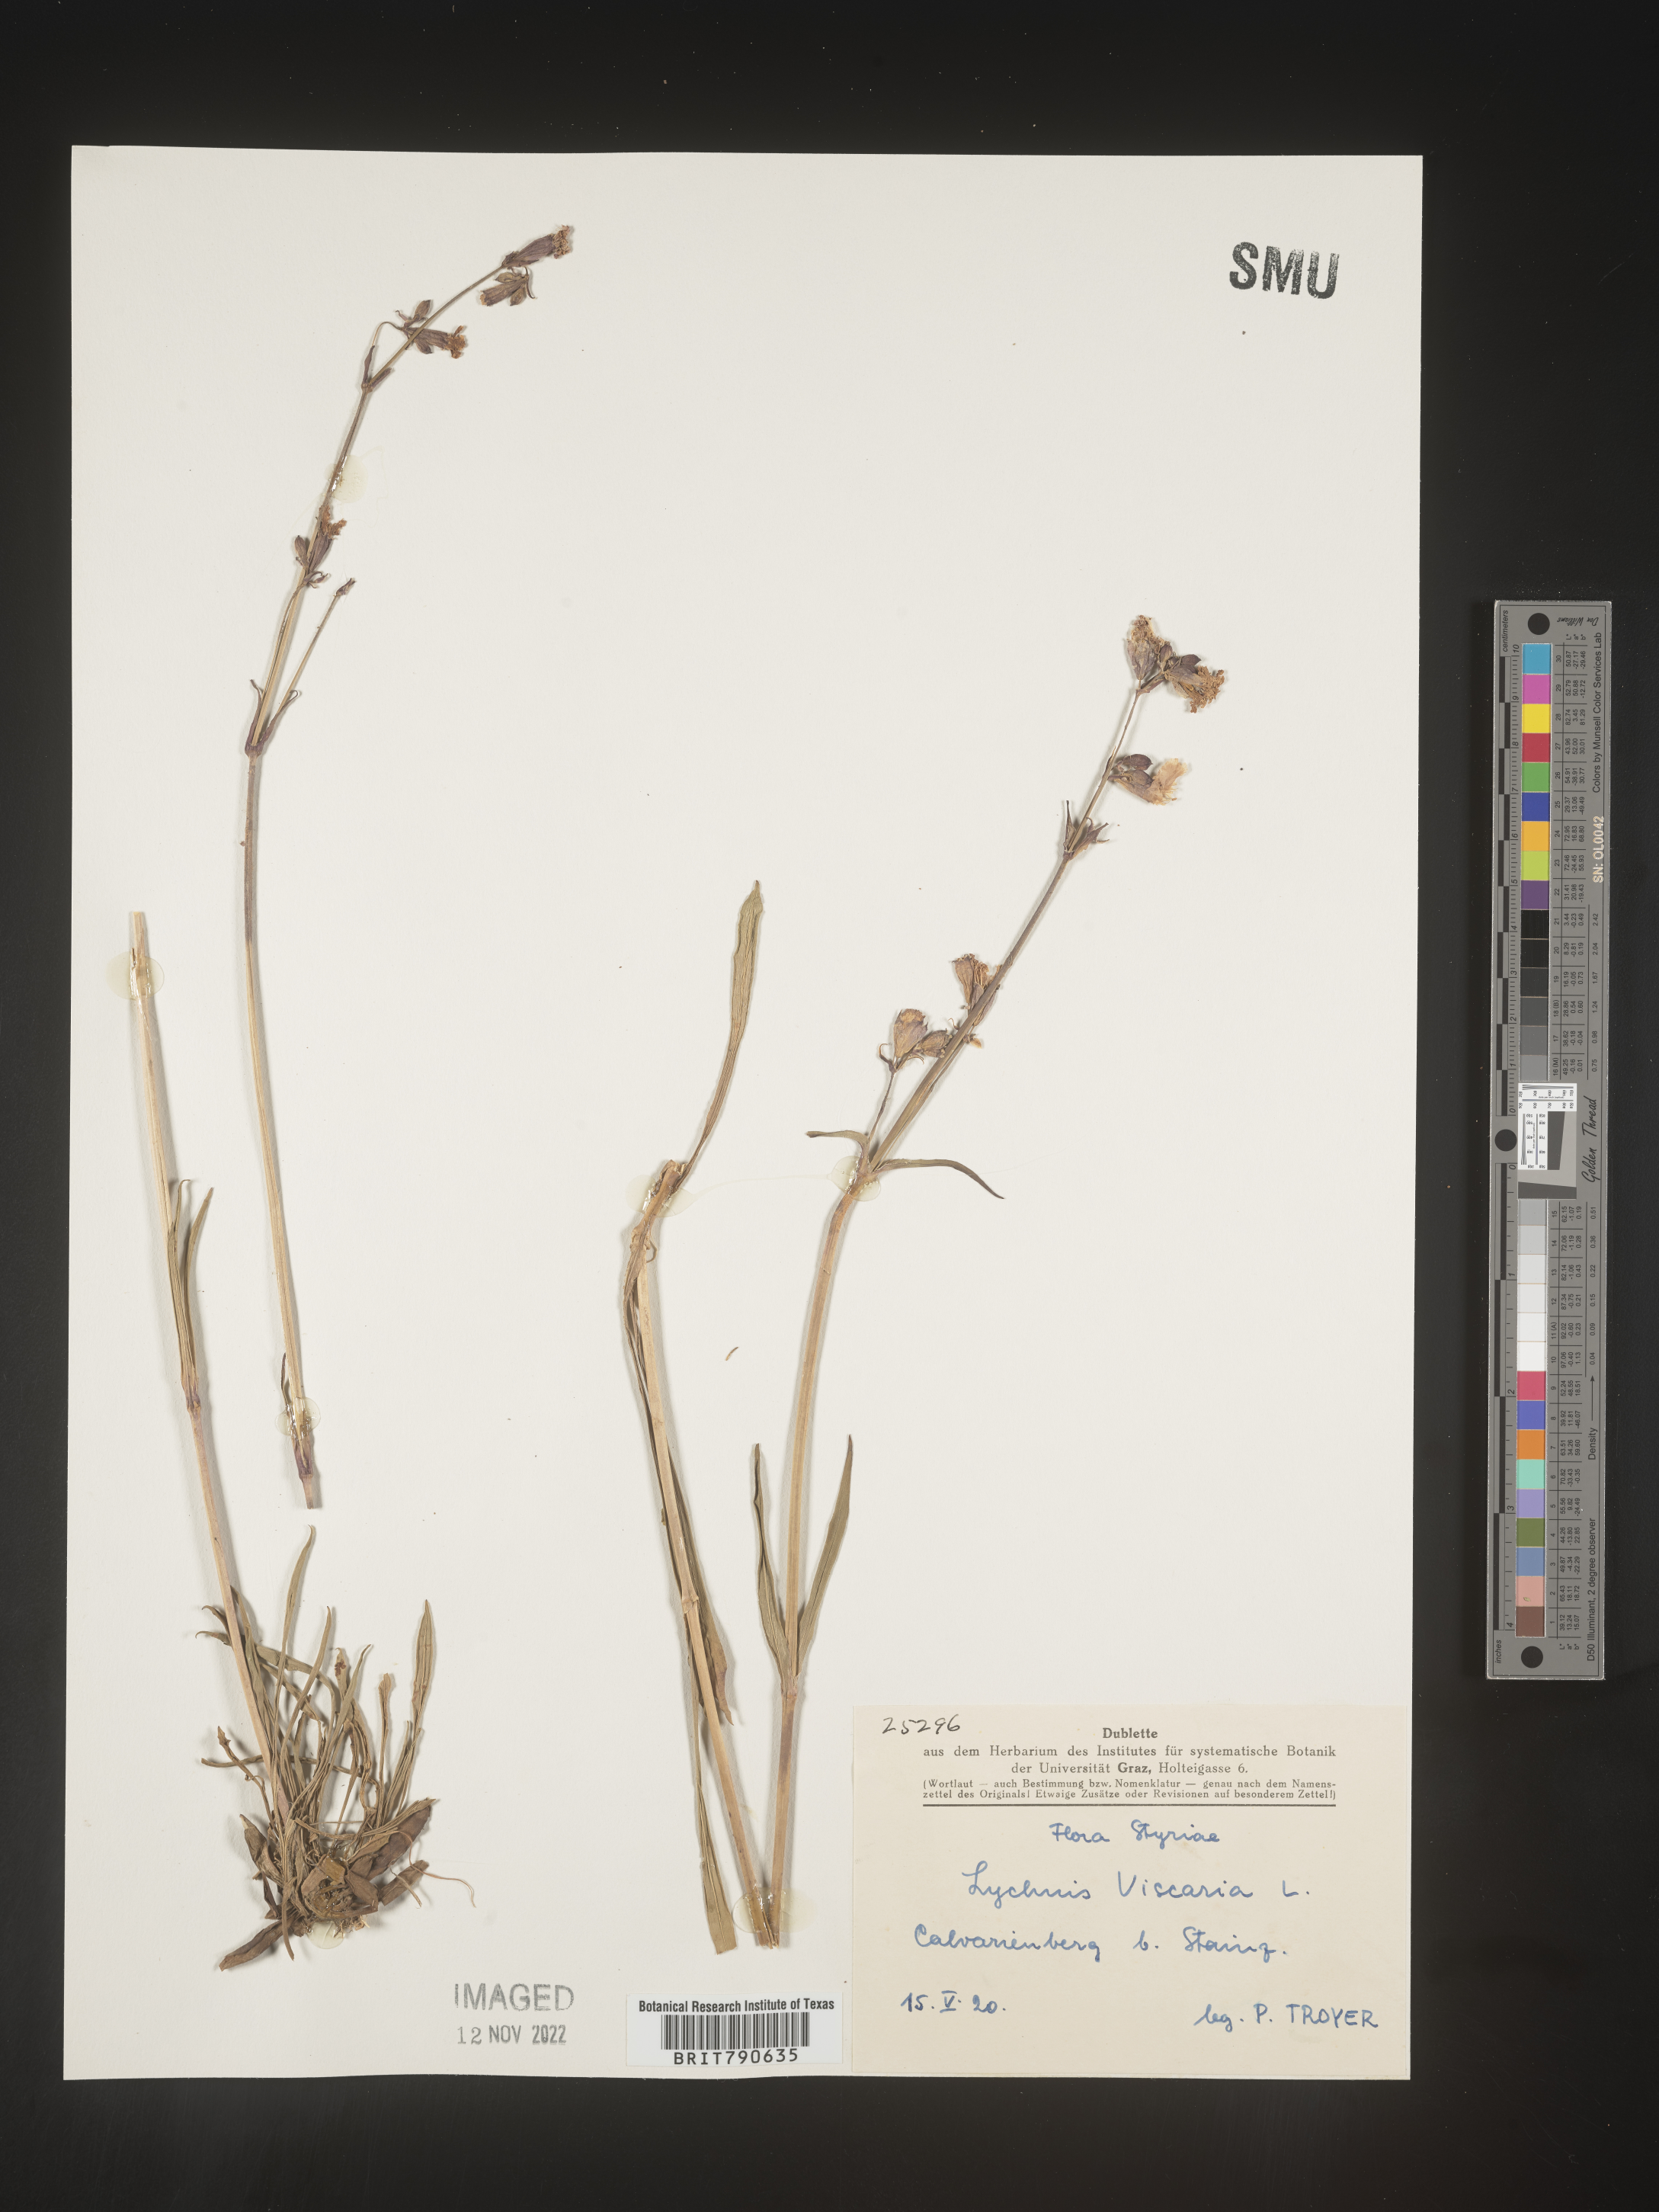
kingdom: Plantae
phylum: Tracheophyta
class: Magnoliopsida
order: Caryophyllales
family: Caryophyllaceae
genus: Silene
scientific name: Silene
